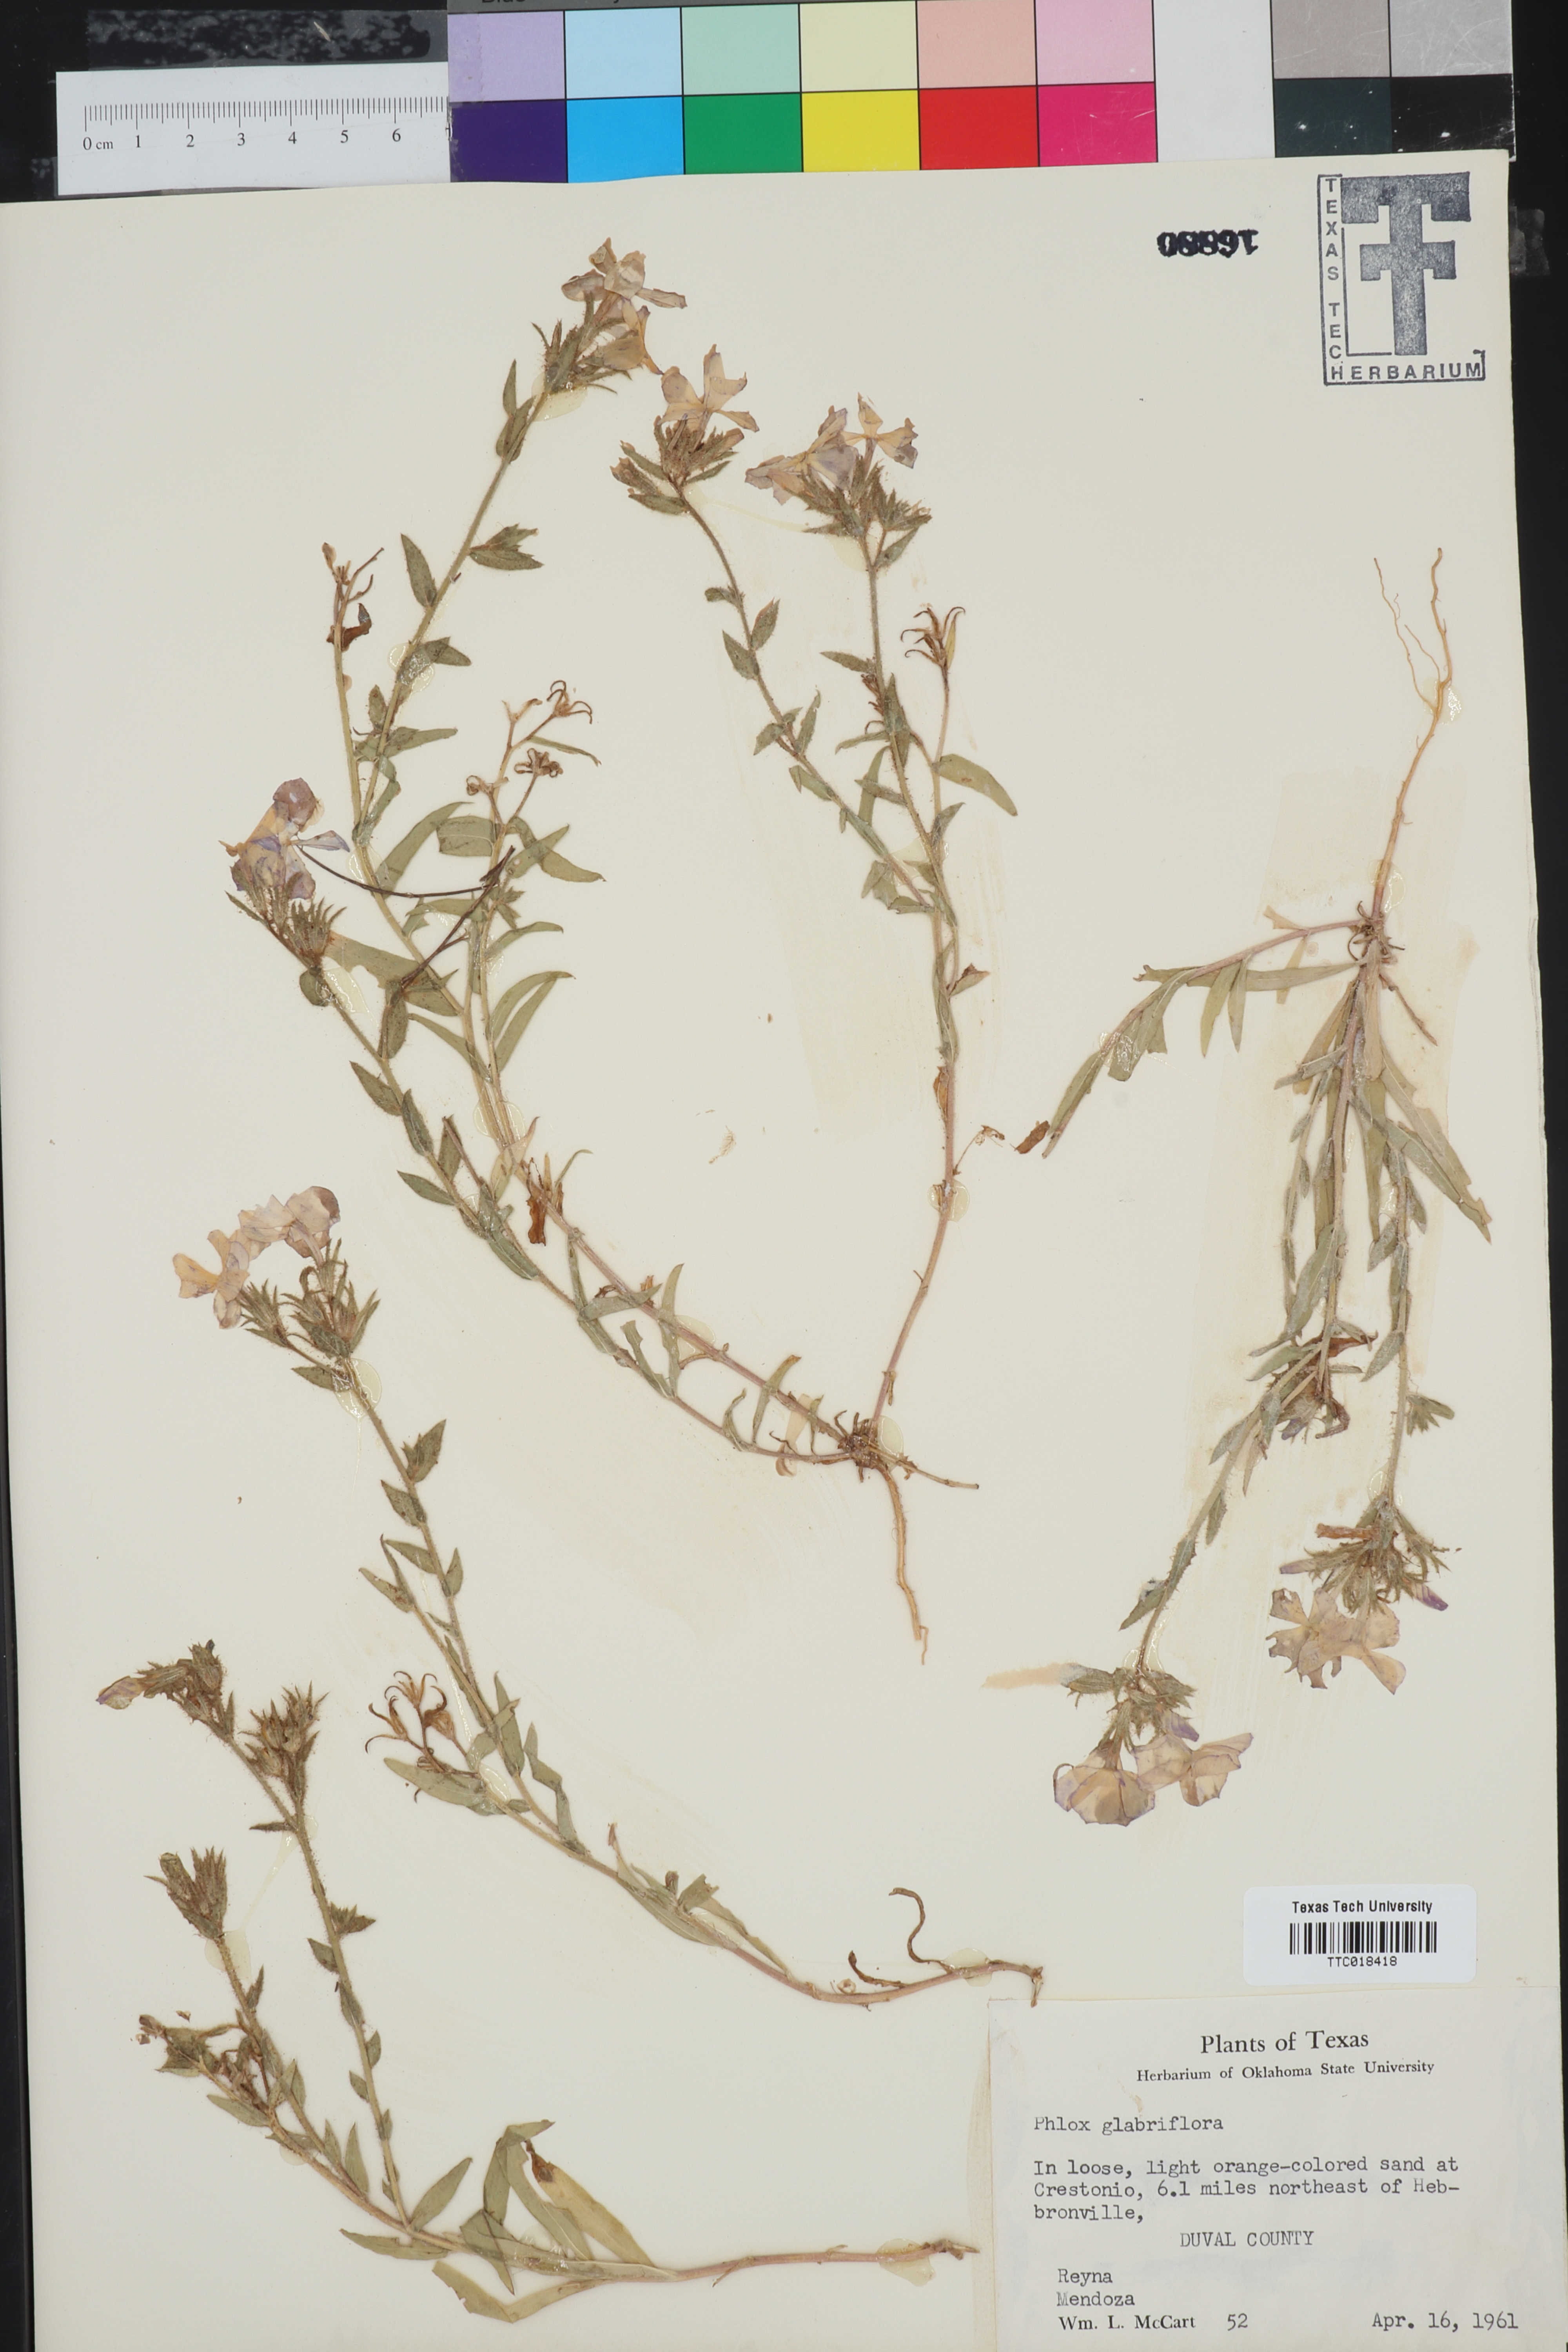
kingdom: Plantae
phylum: Tracheophyta
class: Magnoliopsida
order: Ericales
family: Polemoniaceae
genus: Phlox
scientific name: Phlox glabriflora
